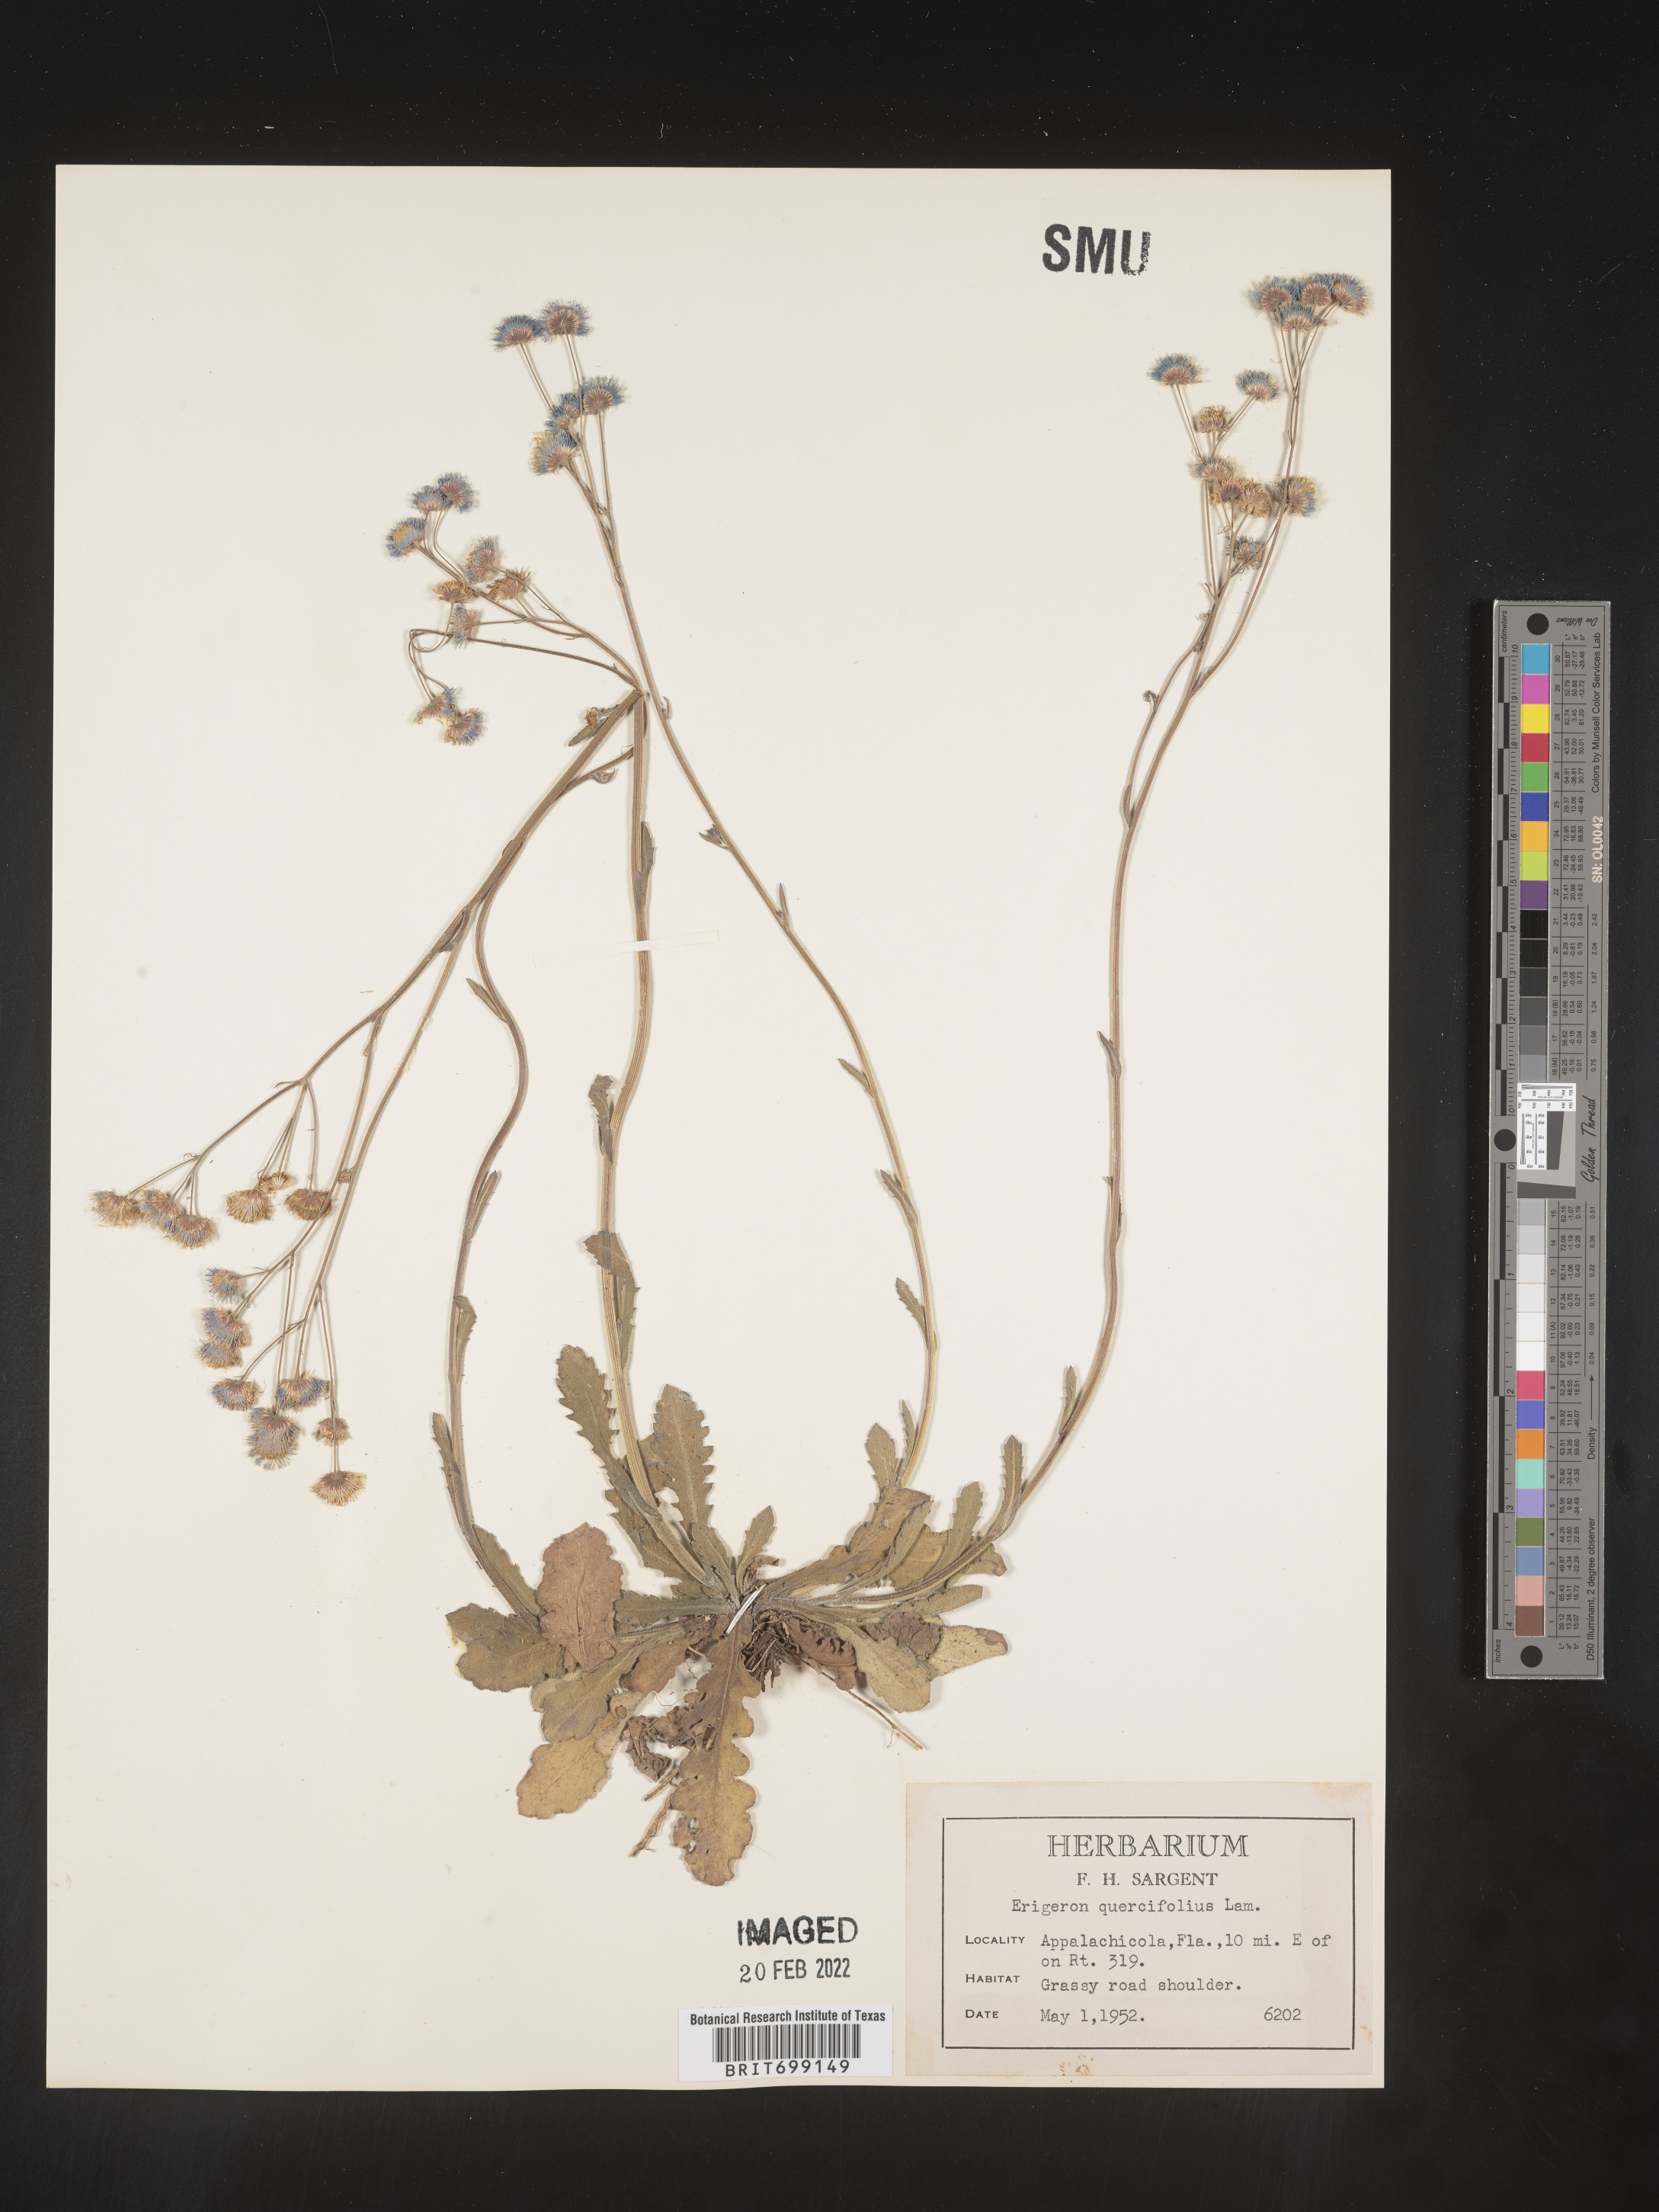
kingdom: Plantae
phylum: Tracheophyta
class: Magnoliopsida
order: Asterales
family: Asteraceae
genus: Erigeron
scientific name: Erigeron quercifolius
